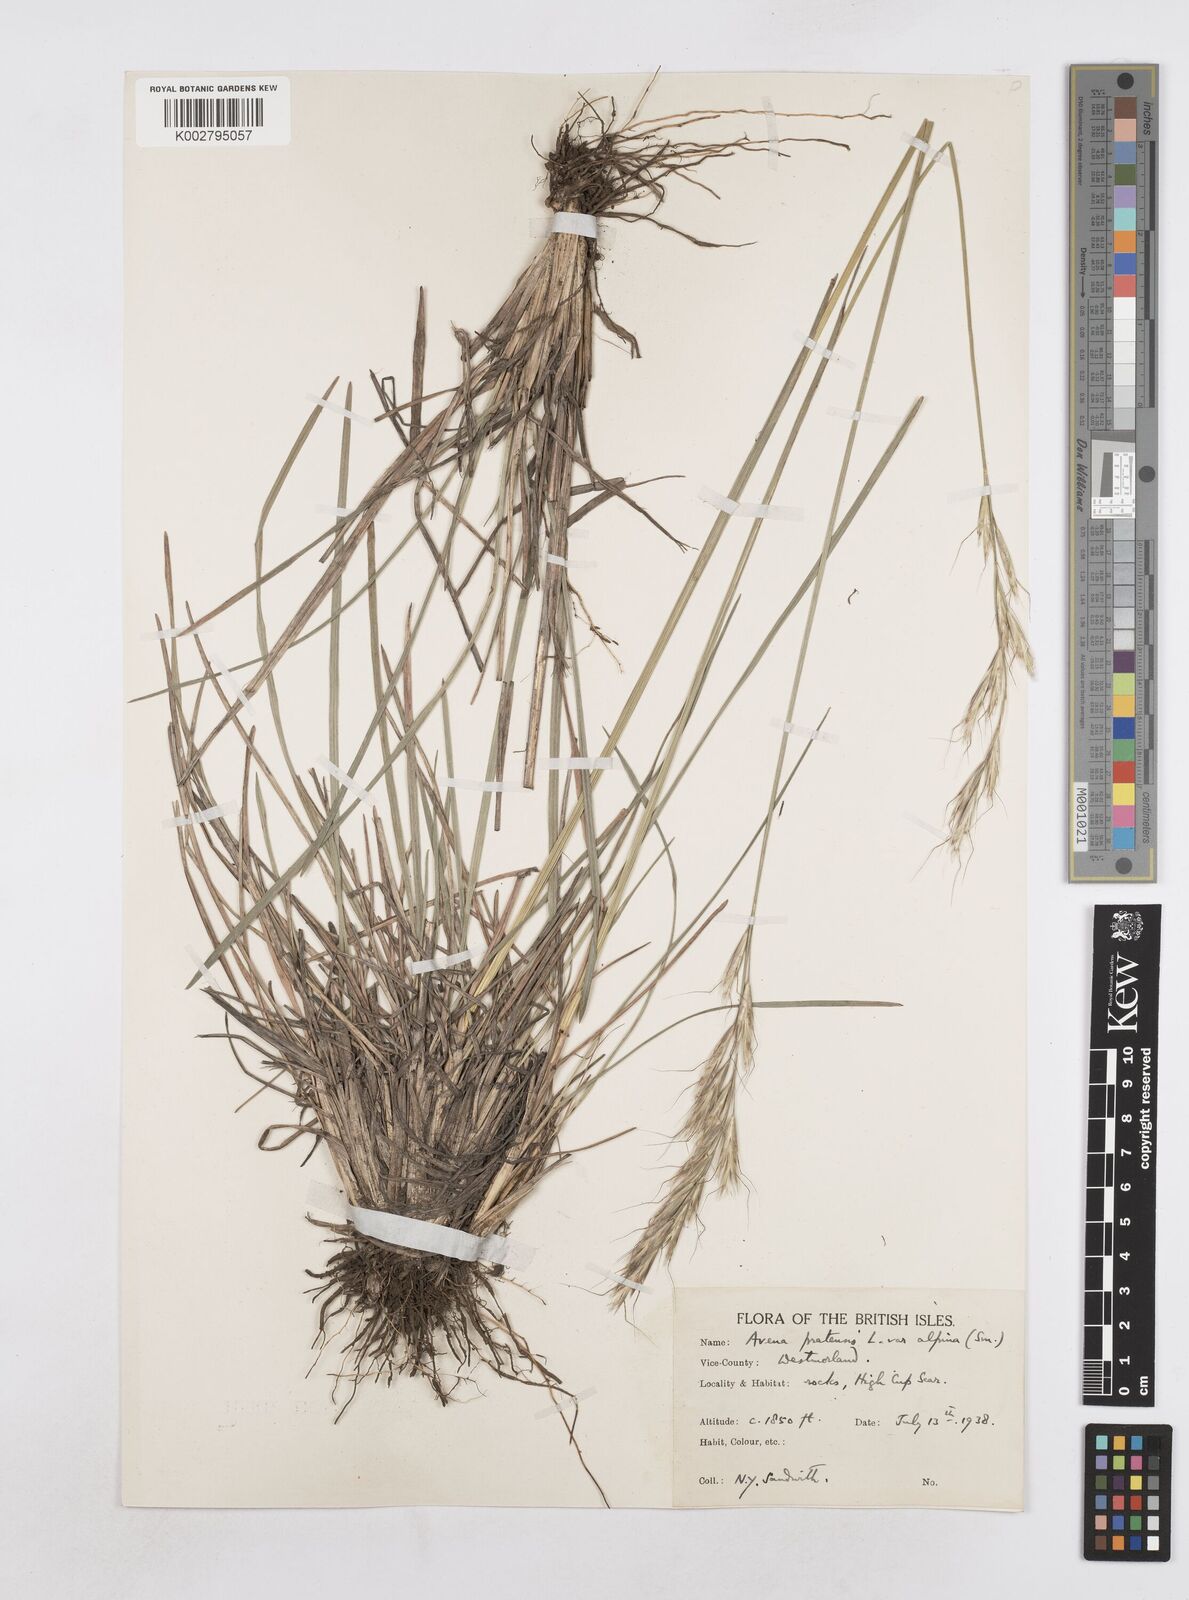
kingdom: Plantae
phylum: Tracheophyta
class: Liliopsida
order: Poales
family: Poaceae
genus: Helictochloa
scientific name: Helictochloa pratensis
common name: Meadow oat grass
